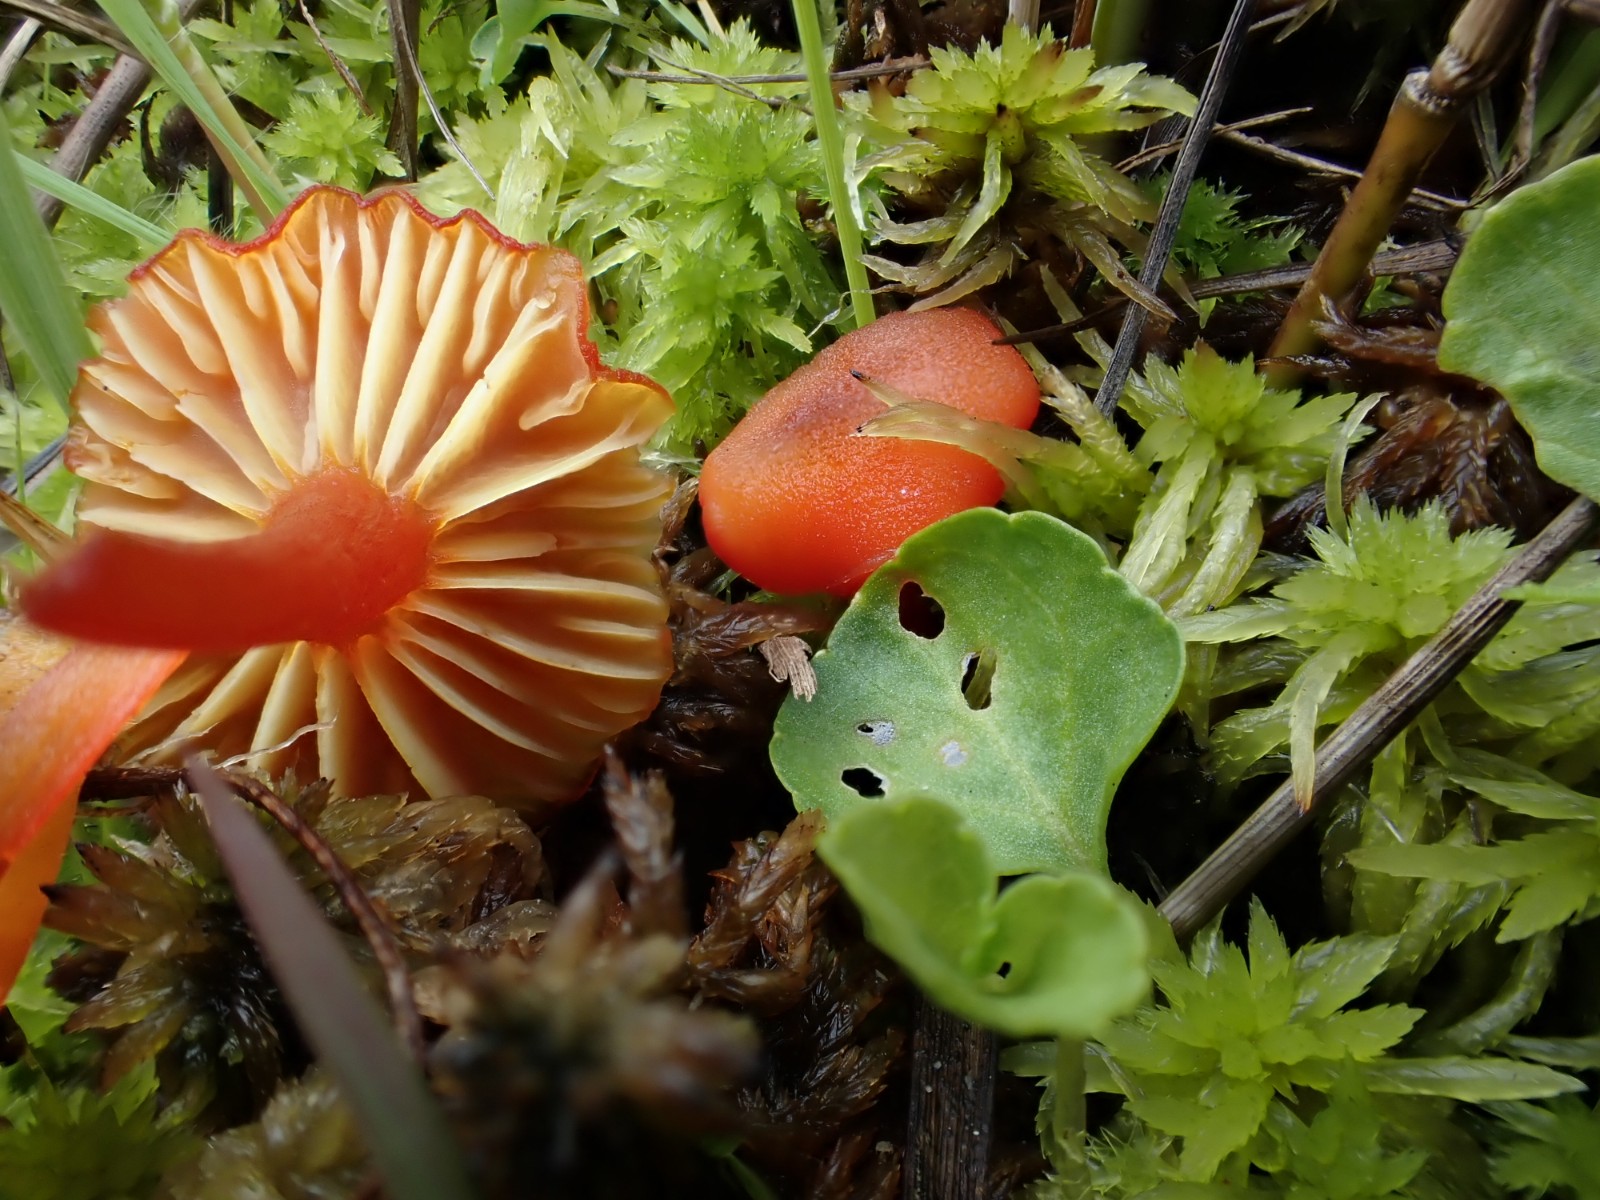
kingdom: Fungi
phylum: Basidiomycota
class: Agaricomycetes
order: Agaricales
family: Hygrophoraceae
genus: Hygrocybe
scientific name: Hygrocybe cantharellus
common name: kantarel-vokshat
